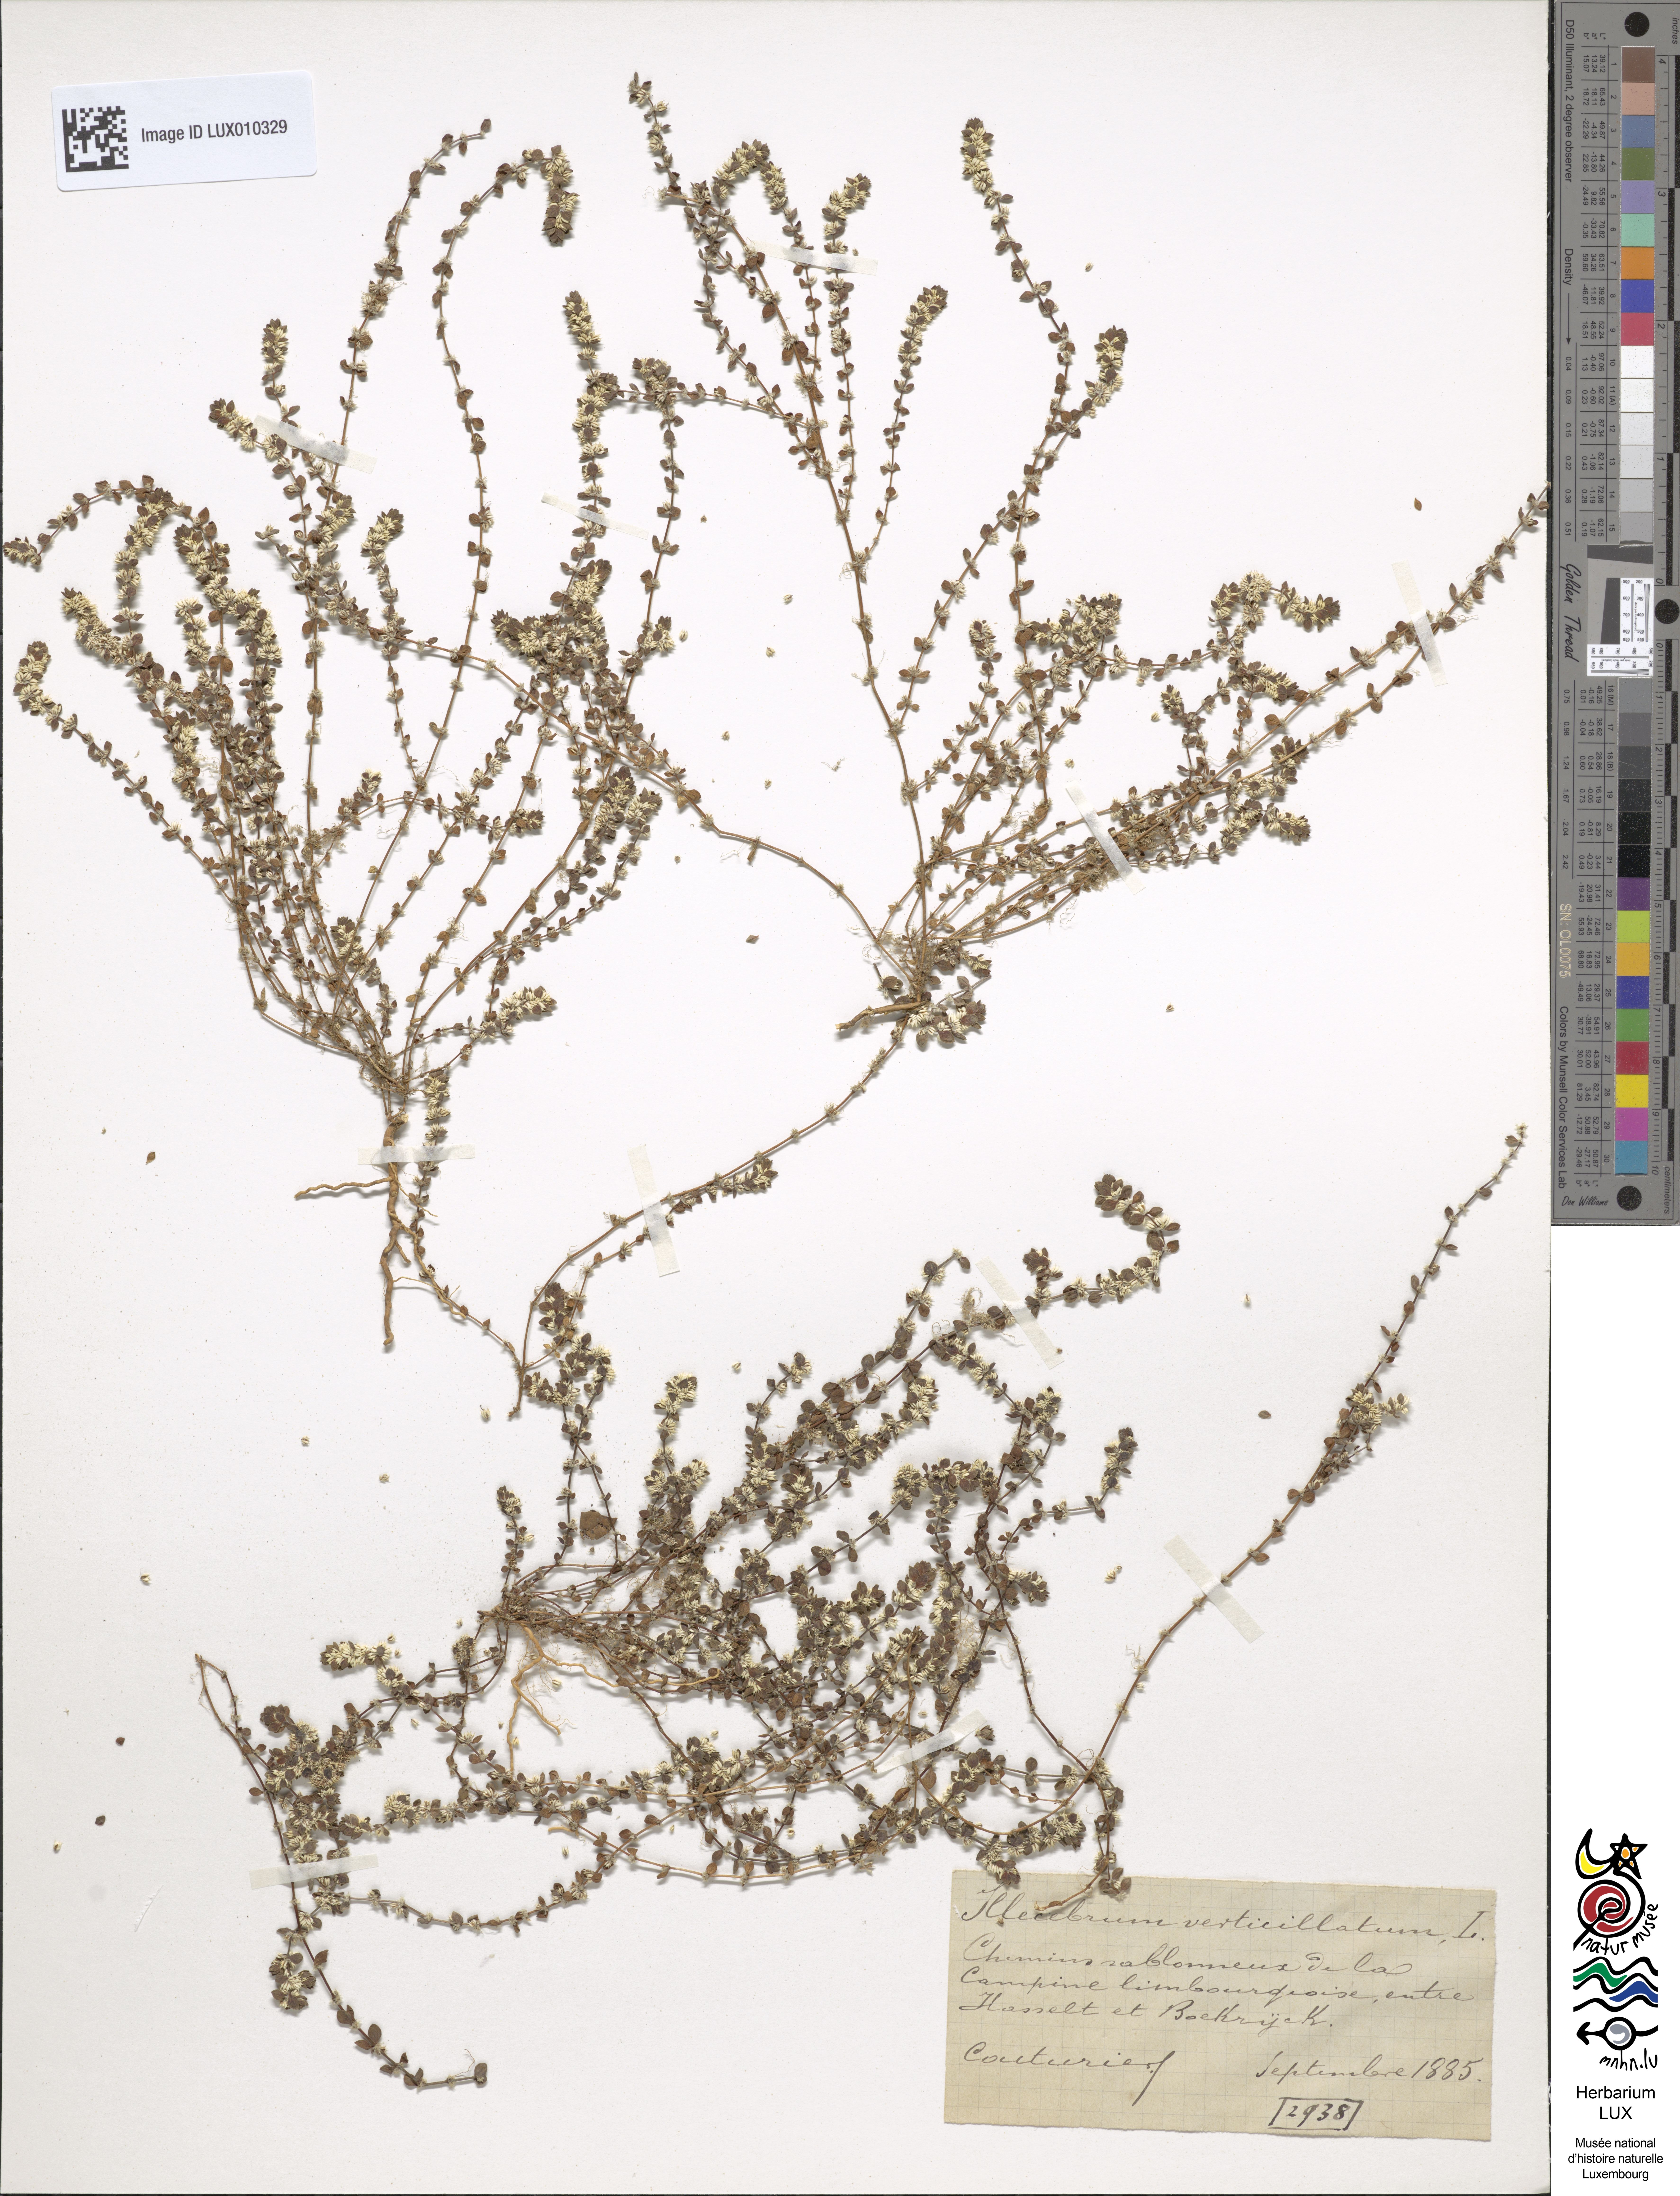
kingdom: Plantae
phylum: Tracheophyta
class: Magnoliopsida
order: Caryophyllales
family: Caryophyllaceae
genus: Illecebrum
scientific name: Illecebrum verticillatum
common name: Coral necklace
